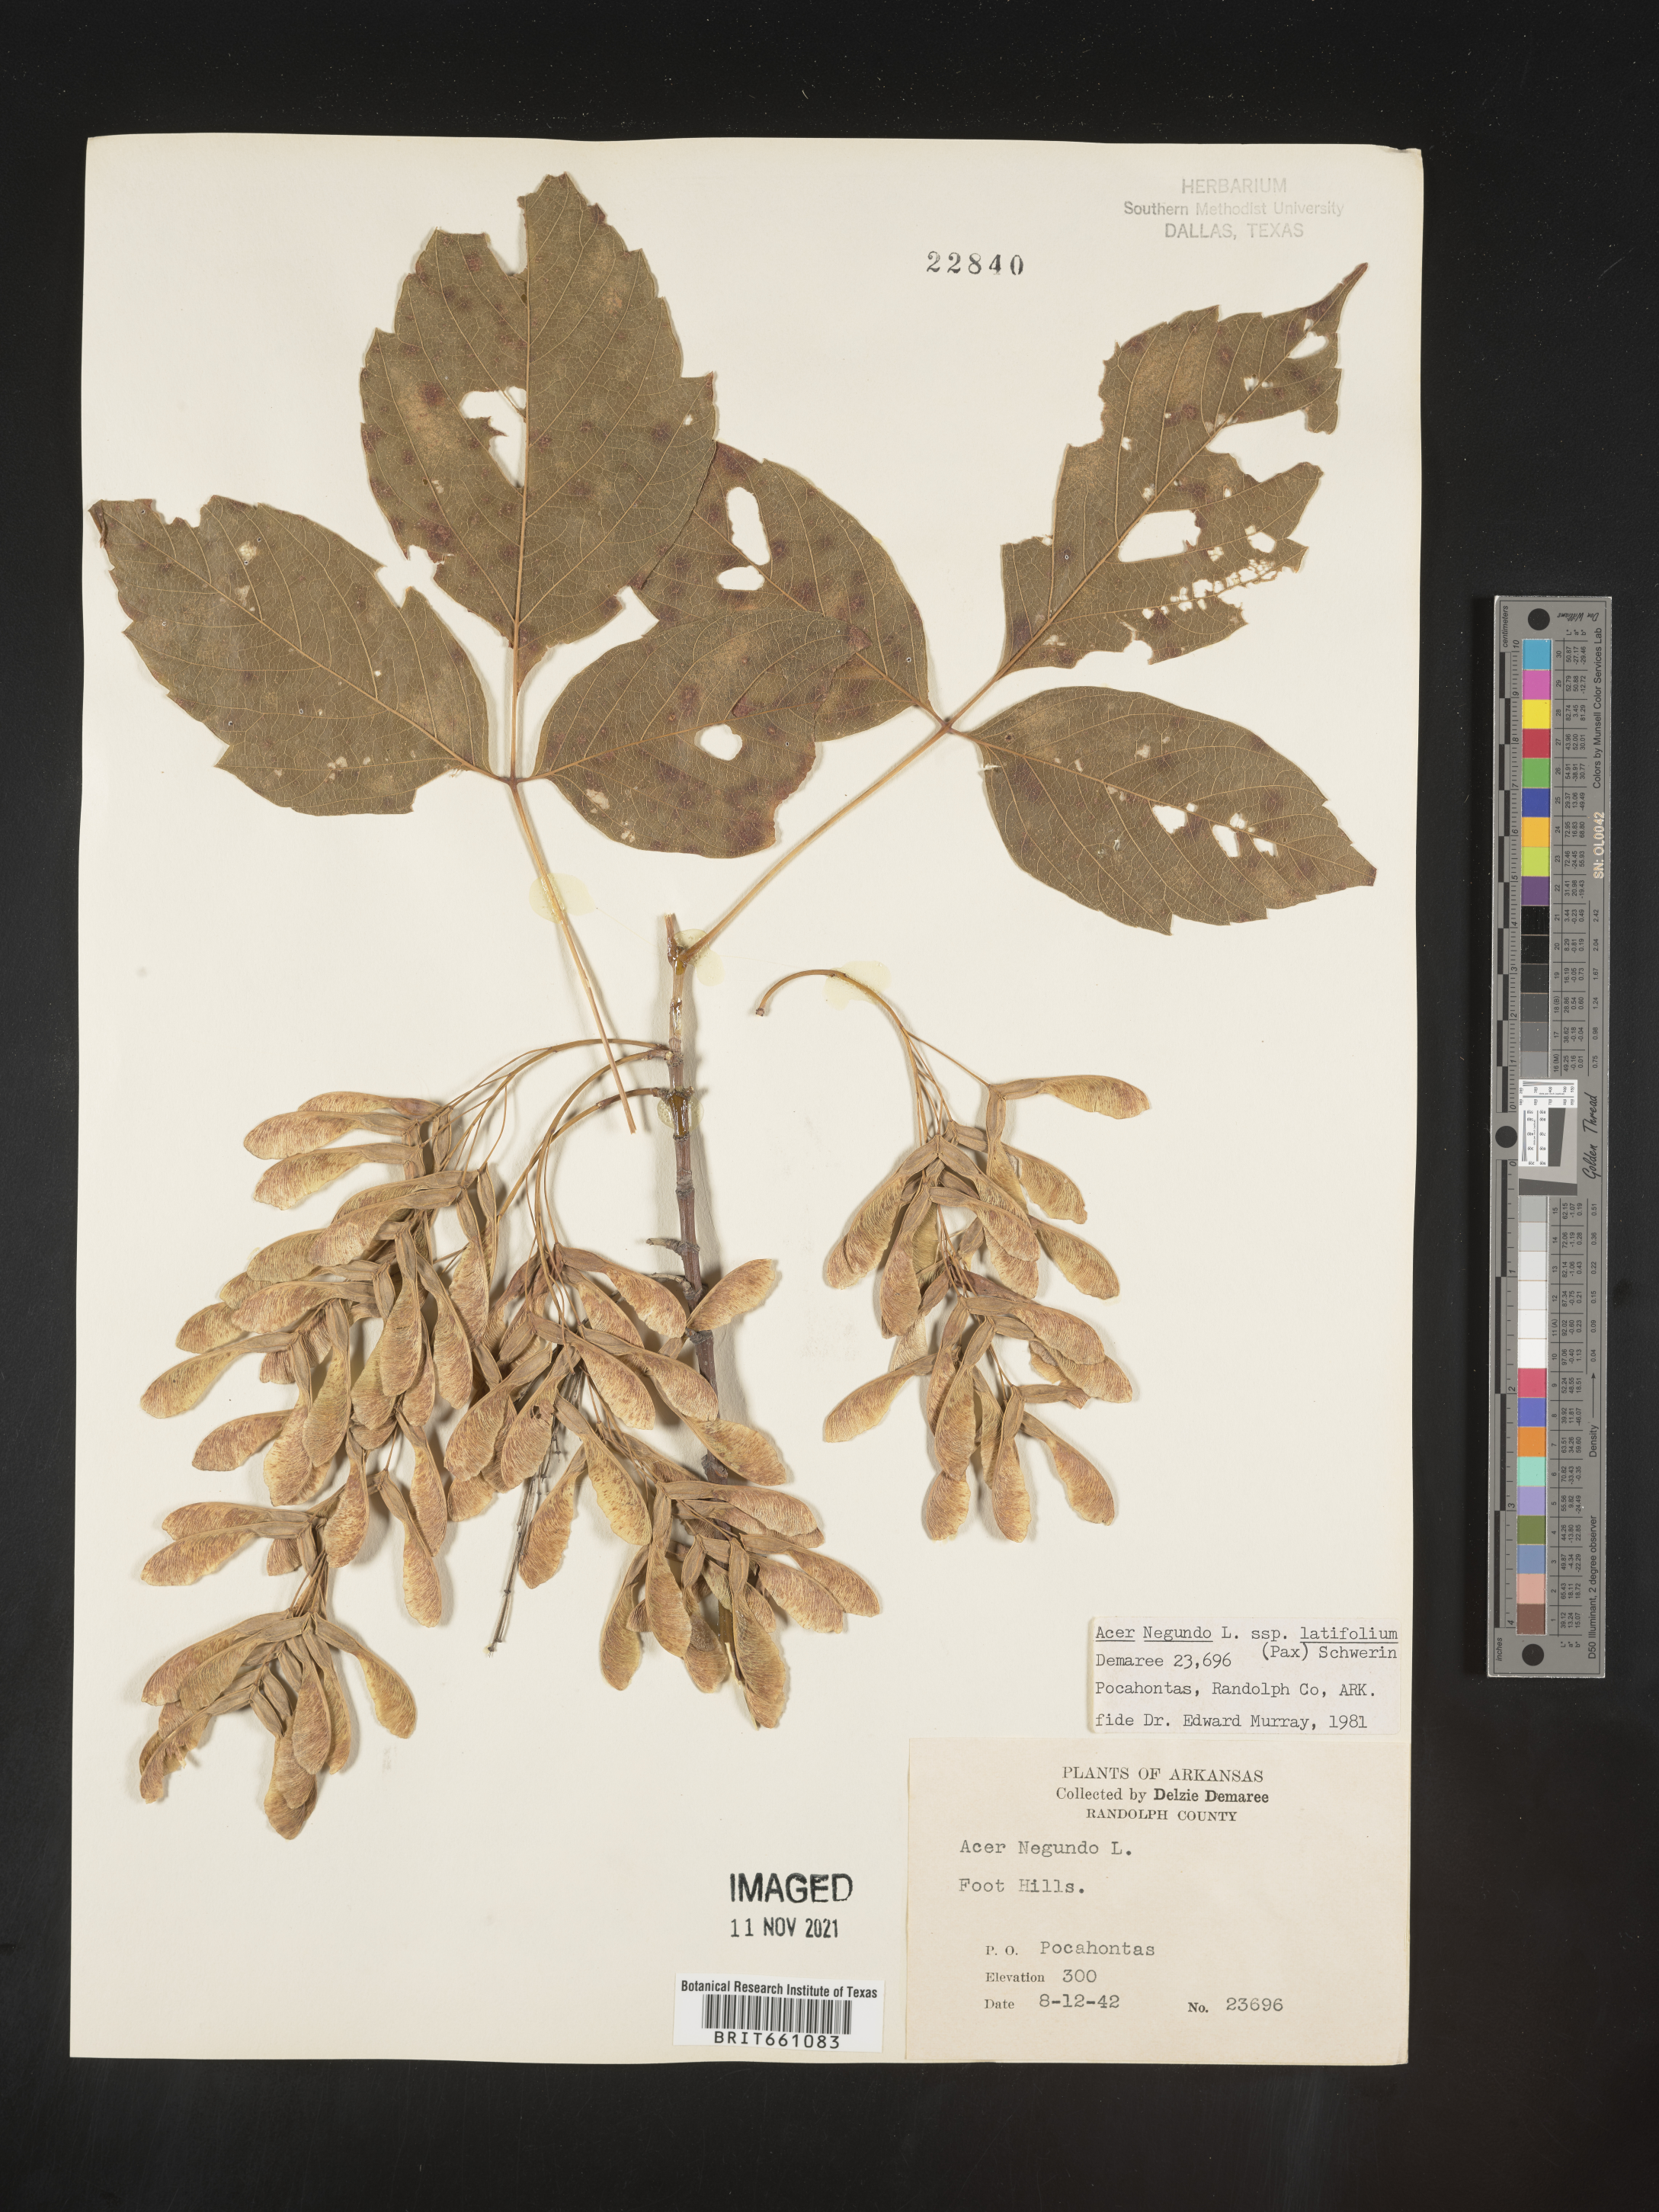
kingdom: Plantae
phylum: Tracheophyta
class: Magnoliopsida
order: Sapindales
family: Sapindaceae
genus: Acer
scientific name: Acer negundo
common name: Ashleaf maple
